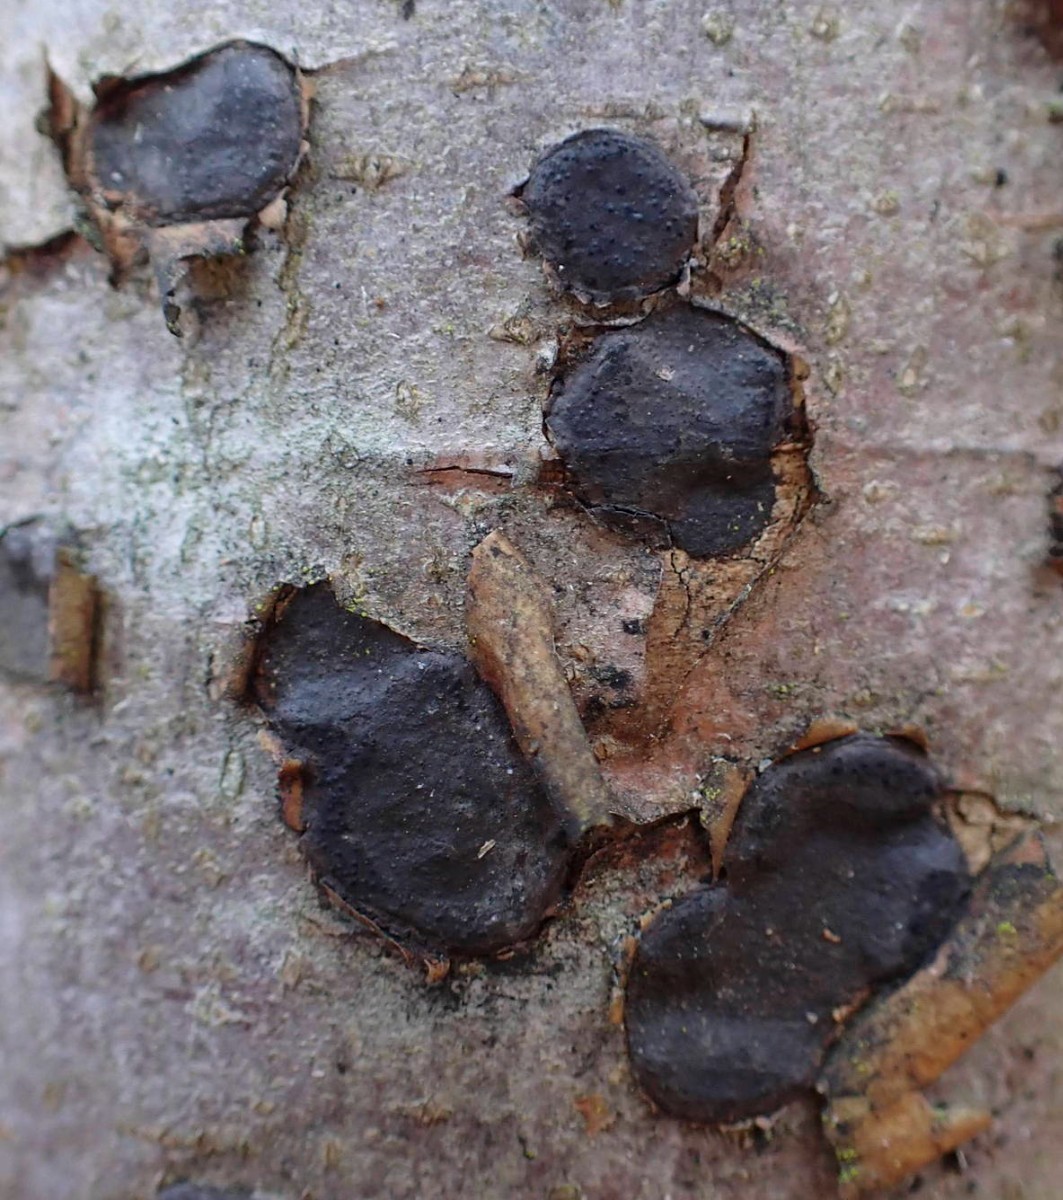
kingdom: Fungi
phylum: Ascomycota
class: Sordariomycetes
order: Xylariales
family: Graphostromataceae
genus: Biscogniauxia
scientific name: Biscogniauxia nummularia
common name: bøge-kulskive
